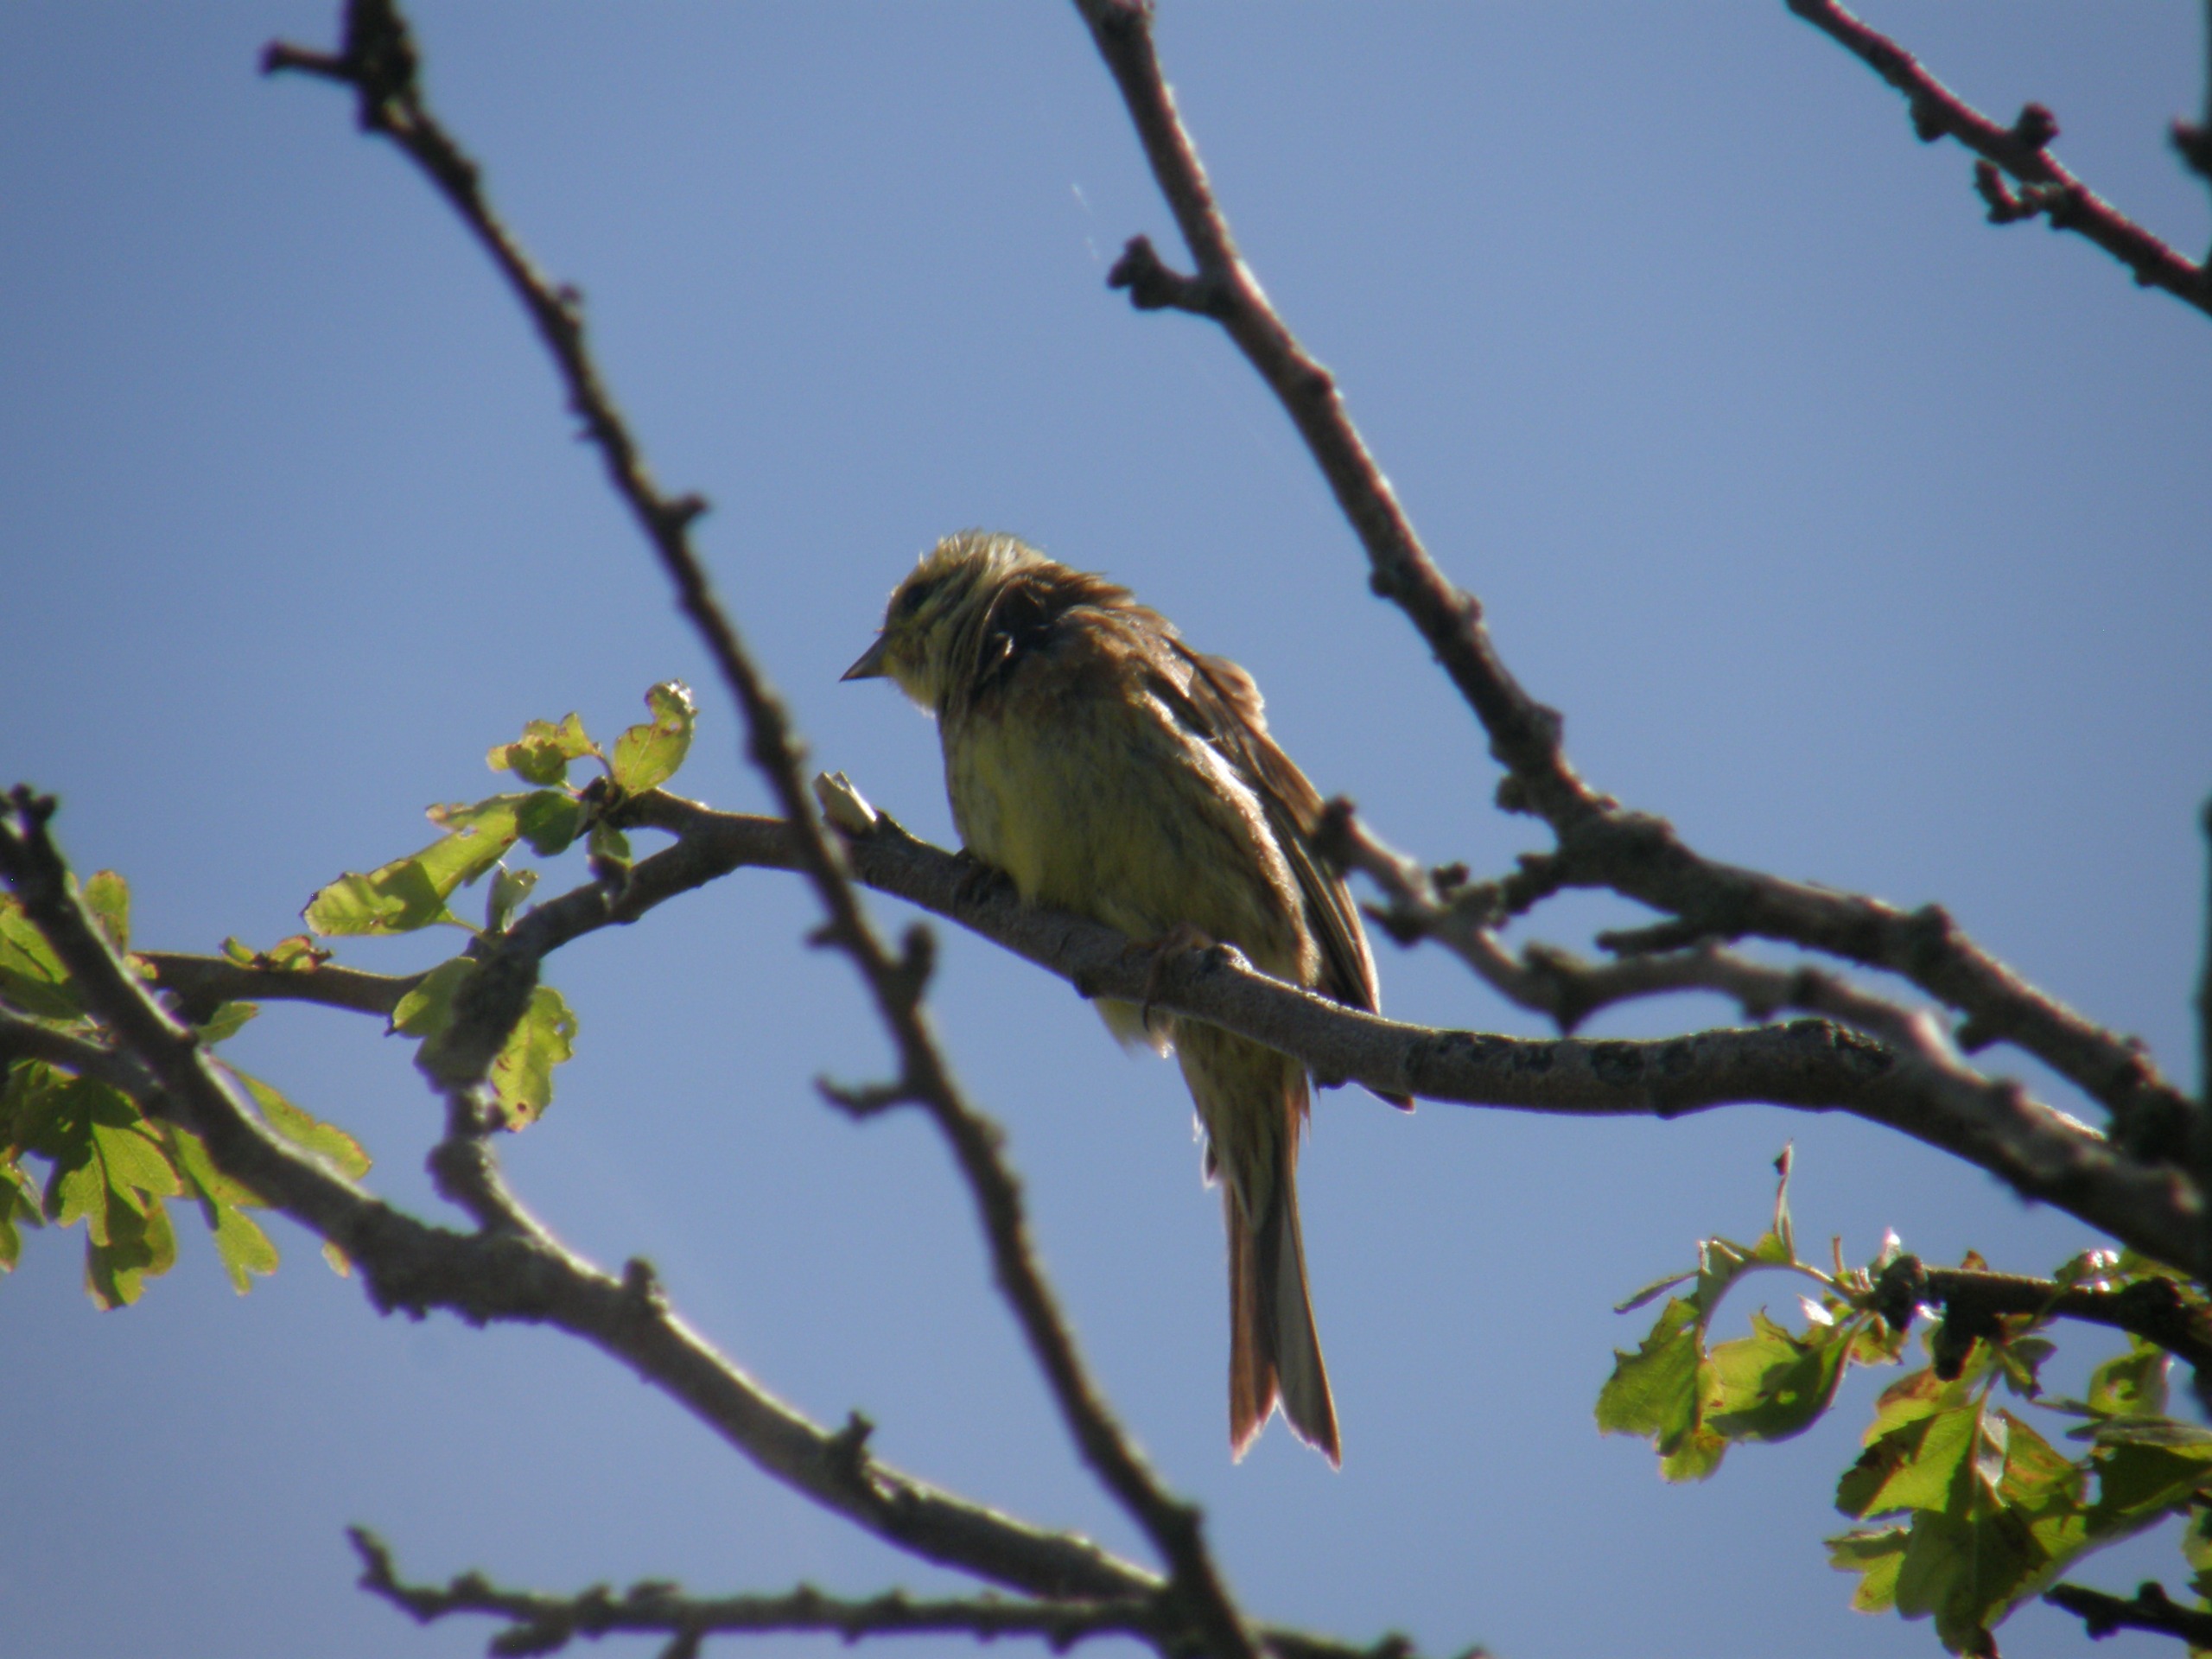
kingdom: Animalia
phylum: Chordata
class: Aves
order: Passeriformes
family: Emberizidae
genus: Emberiza
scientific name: Emberiza citrinella
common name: Gulspurv
